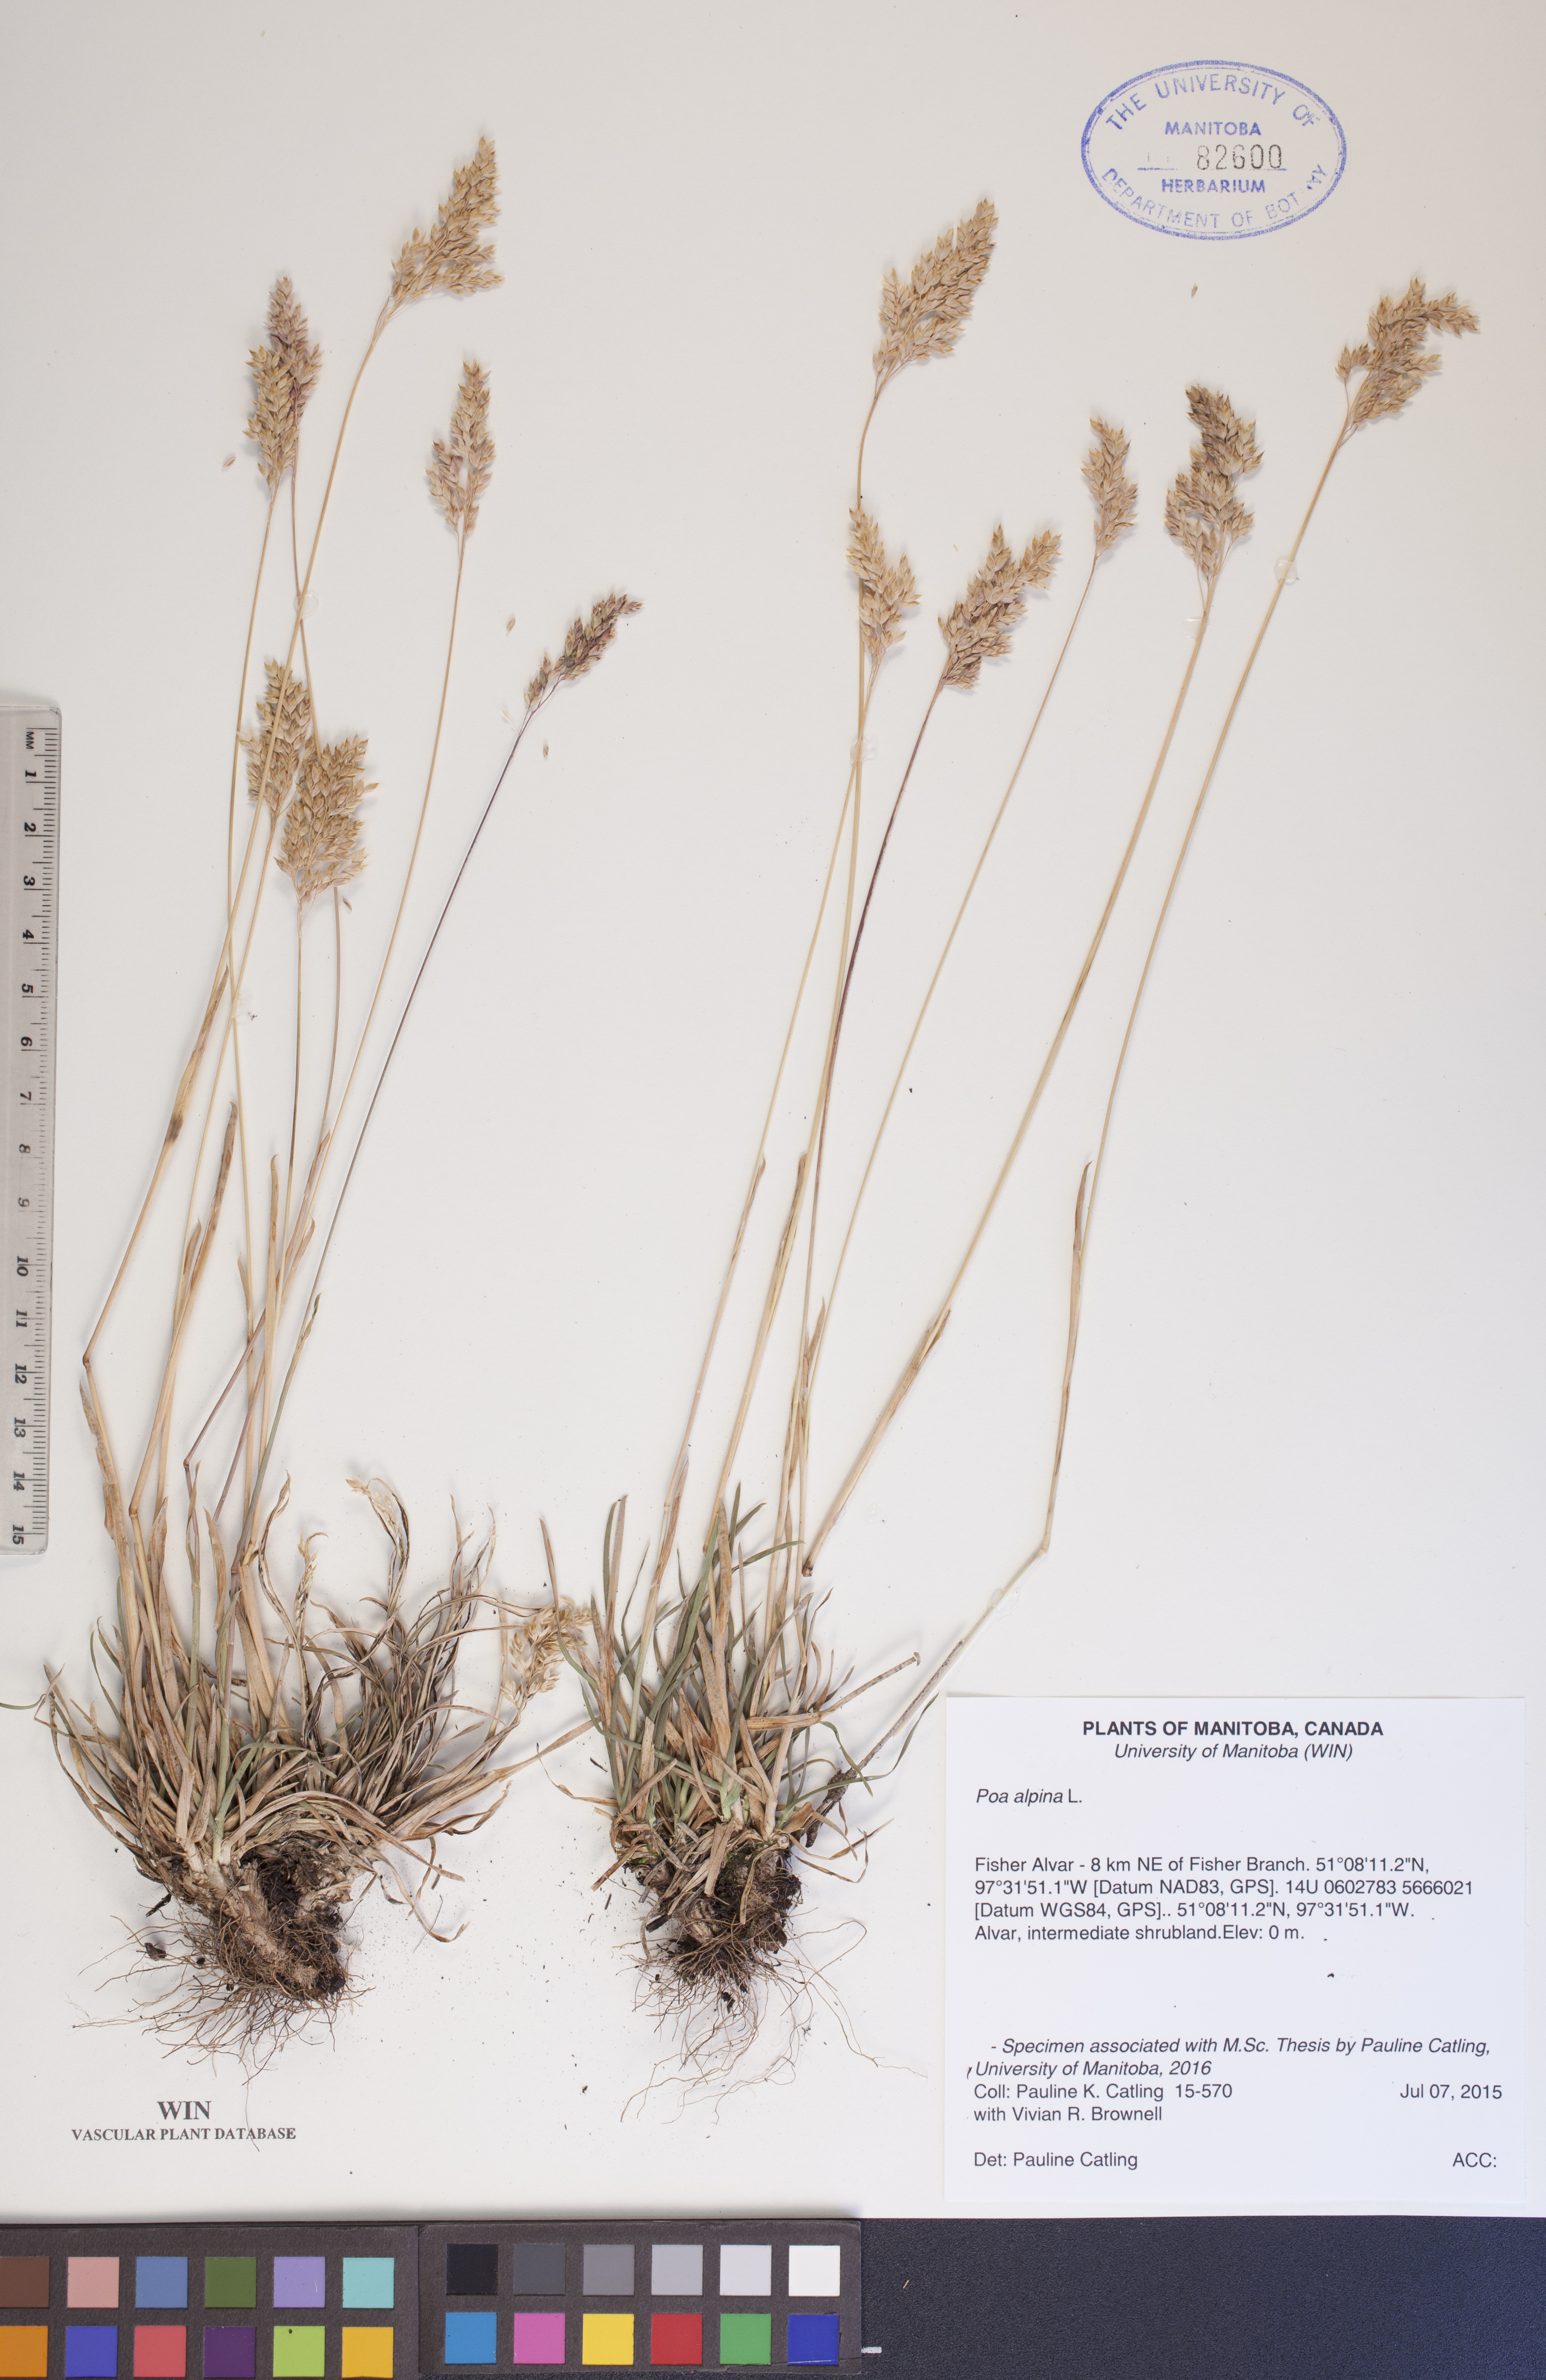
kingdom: Plantae
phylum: Tracheophyta
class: Liliopsida
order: Poales
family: Poaceae
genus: Poa
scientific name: Poa alpina
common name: Alpine bluegrass
